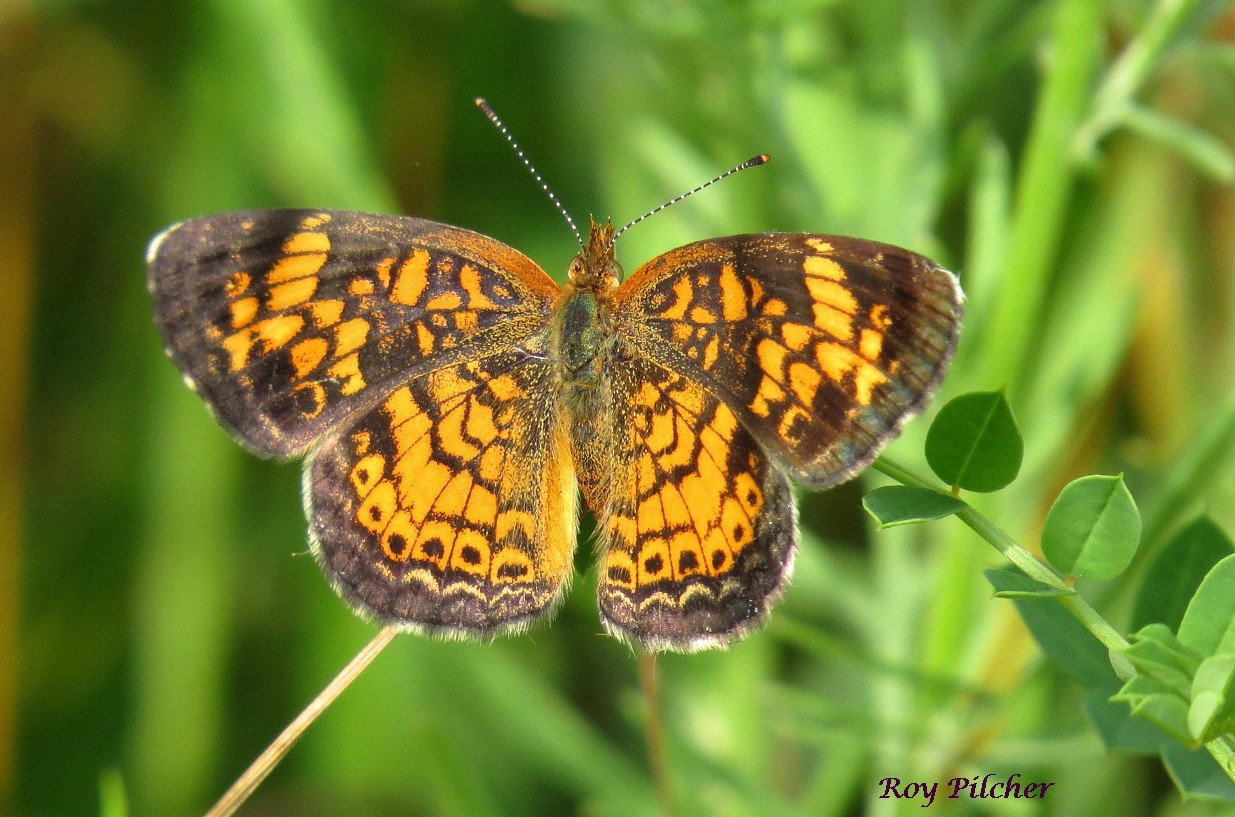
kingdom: Animalia
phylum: Arthropoda
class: Insecta
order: Lepidoptera
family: Nymphalidae
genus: Phyciodes
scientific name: Phyciodes tharos
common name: Pearl Crescent
